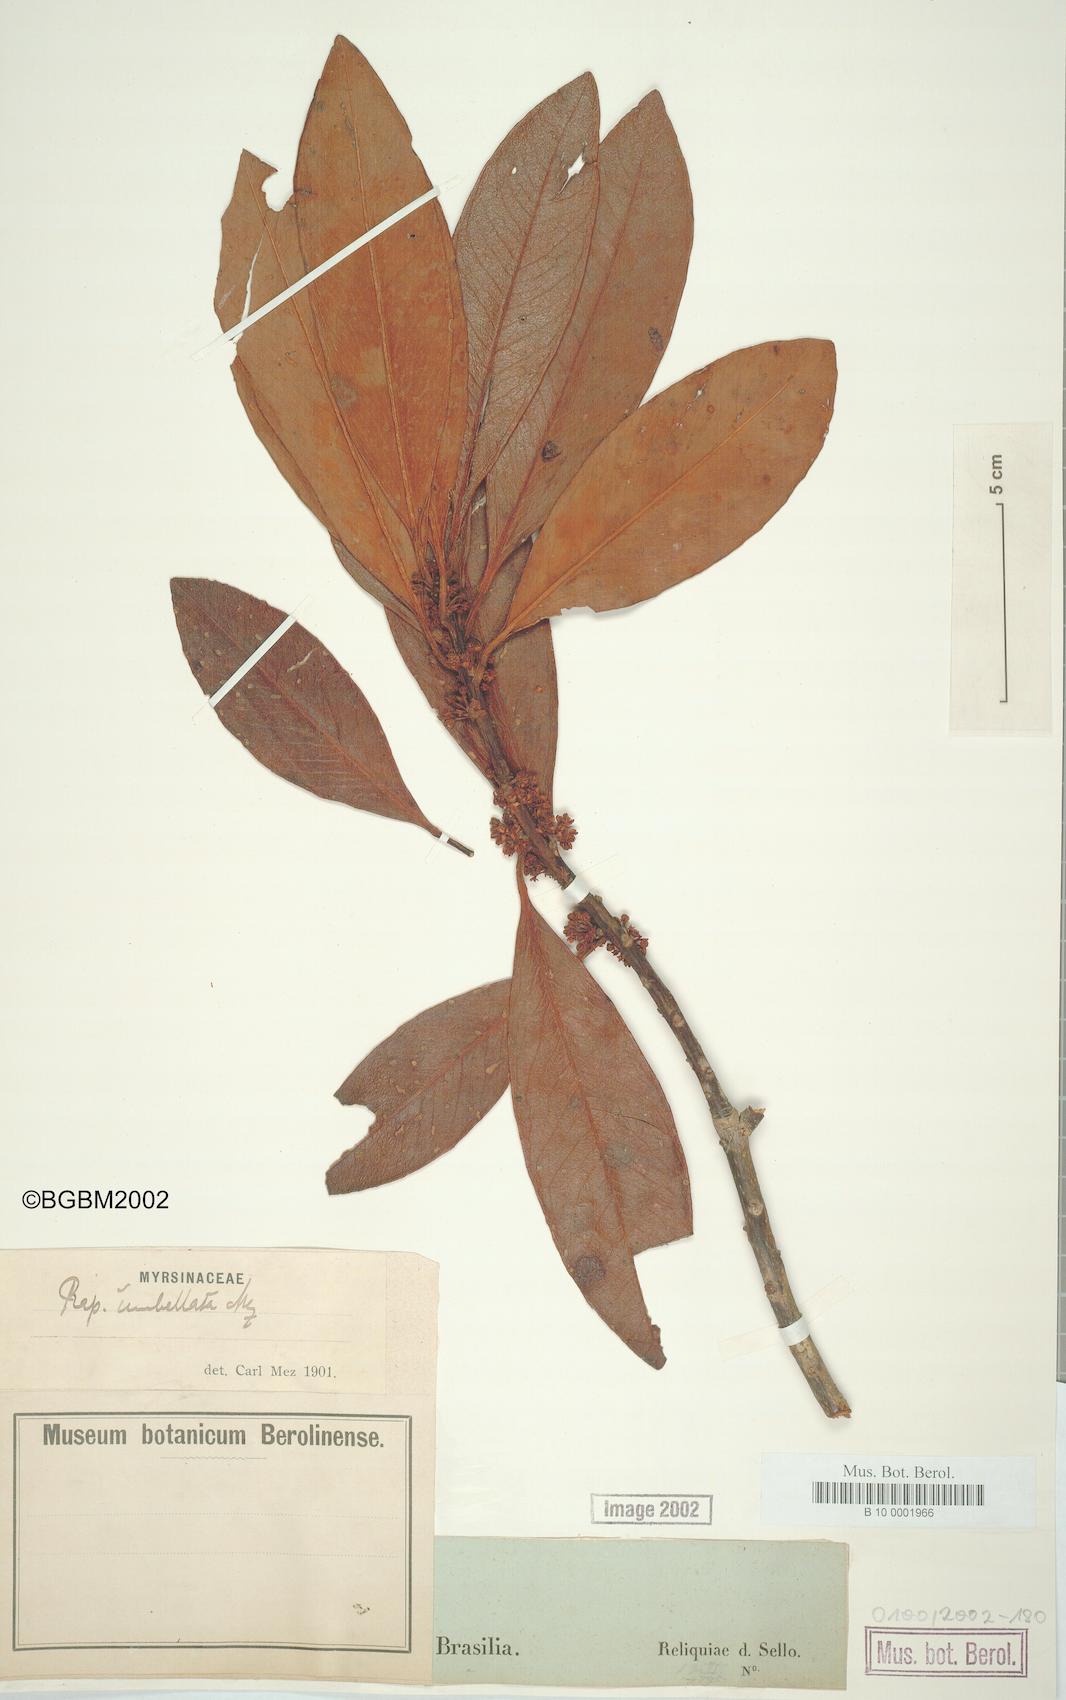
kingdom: Plantae
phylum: Tracheophyta
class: Magnoliopsida
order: Ericales
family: Primulaceae
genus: Myrsine
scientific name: Myrsine umbellata
